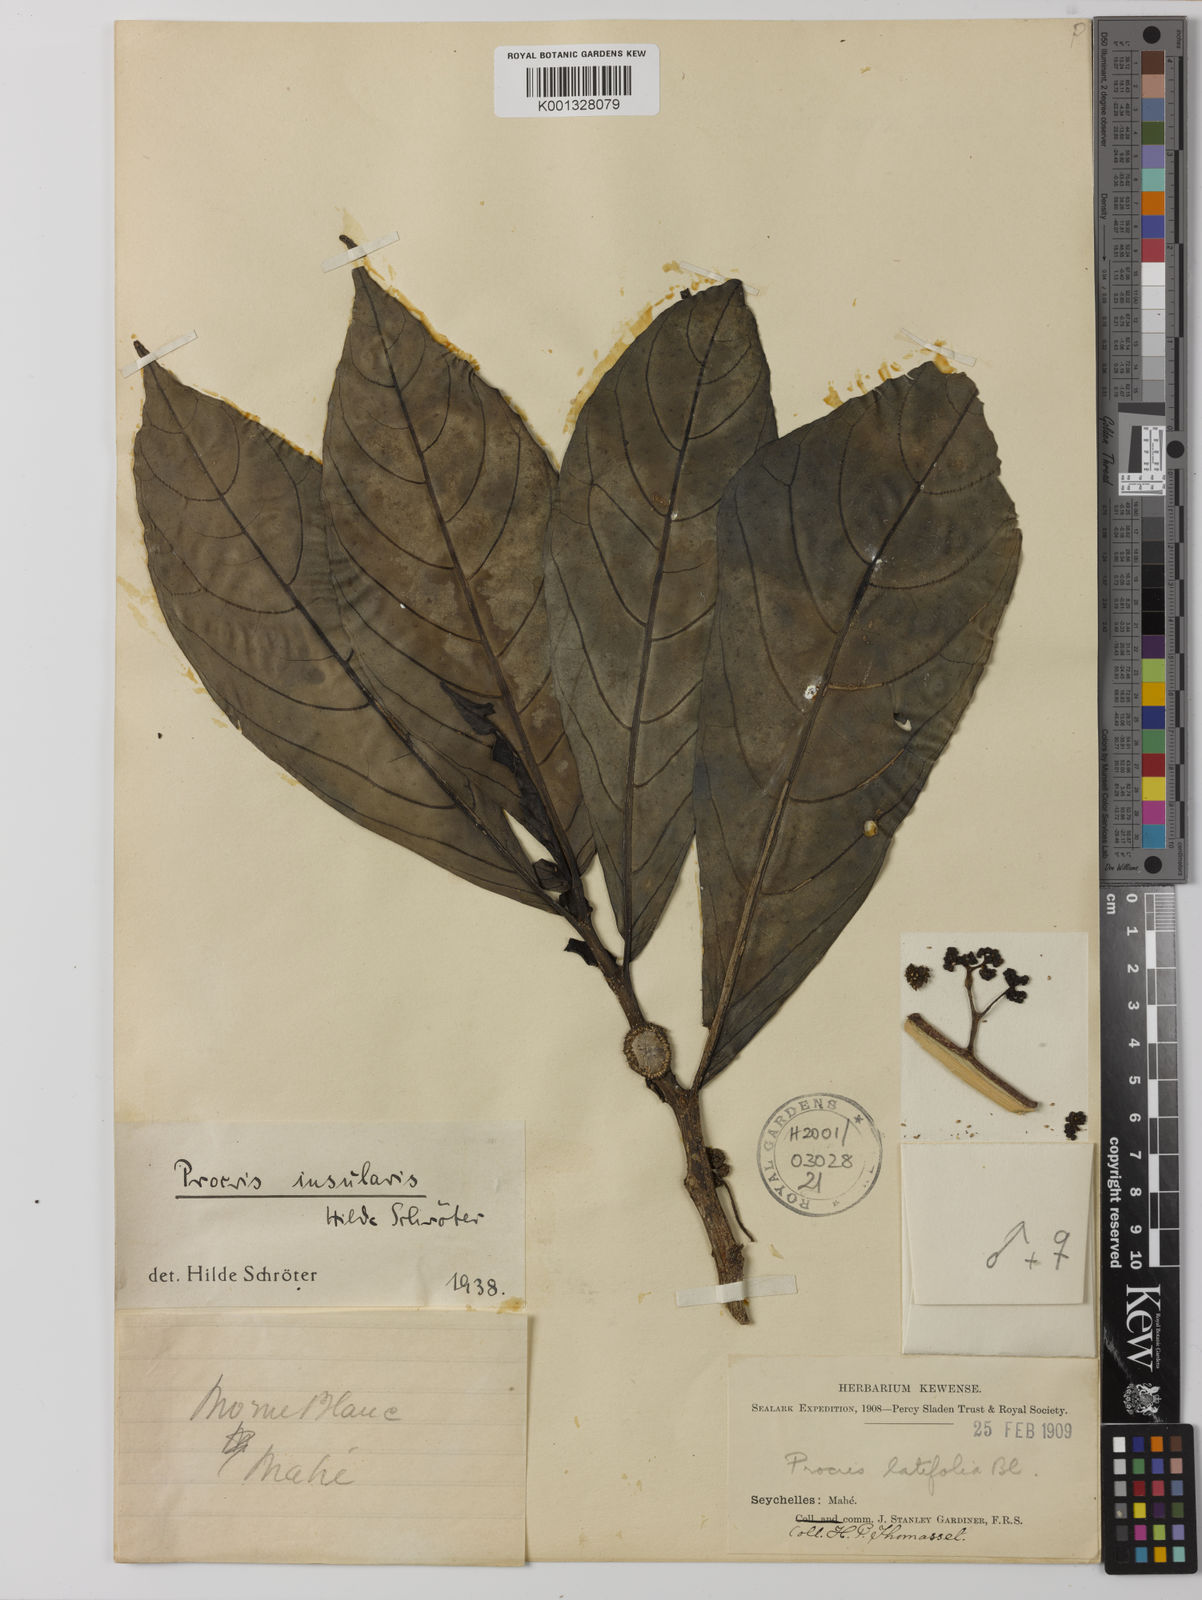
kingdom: Plantae
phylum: Tracheophyta
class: Magnoliopsida
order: Rosales
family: Urticaceae
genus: Procris
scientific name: Procris insularis
